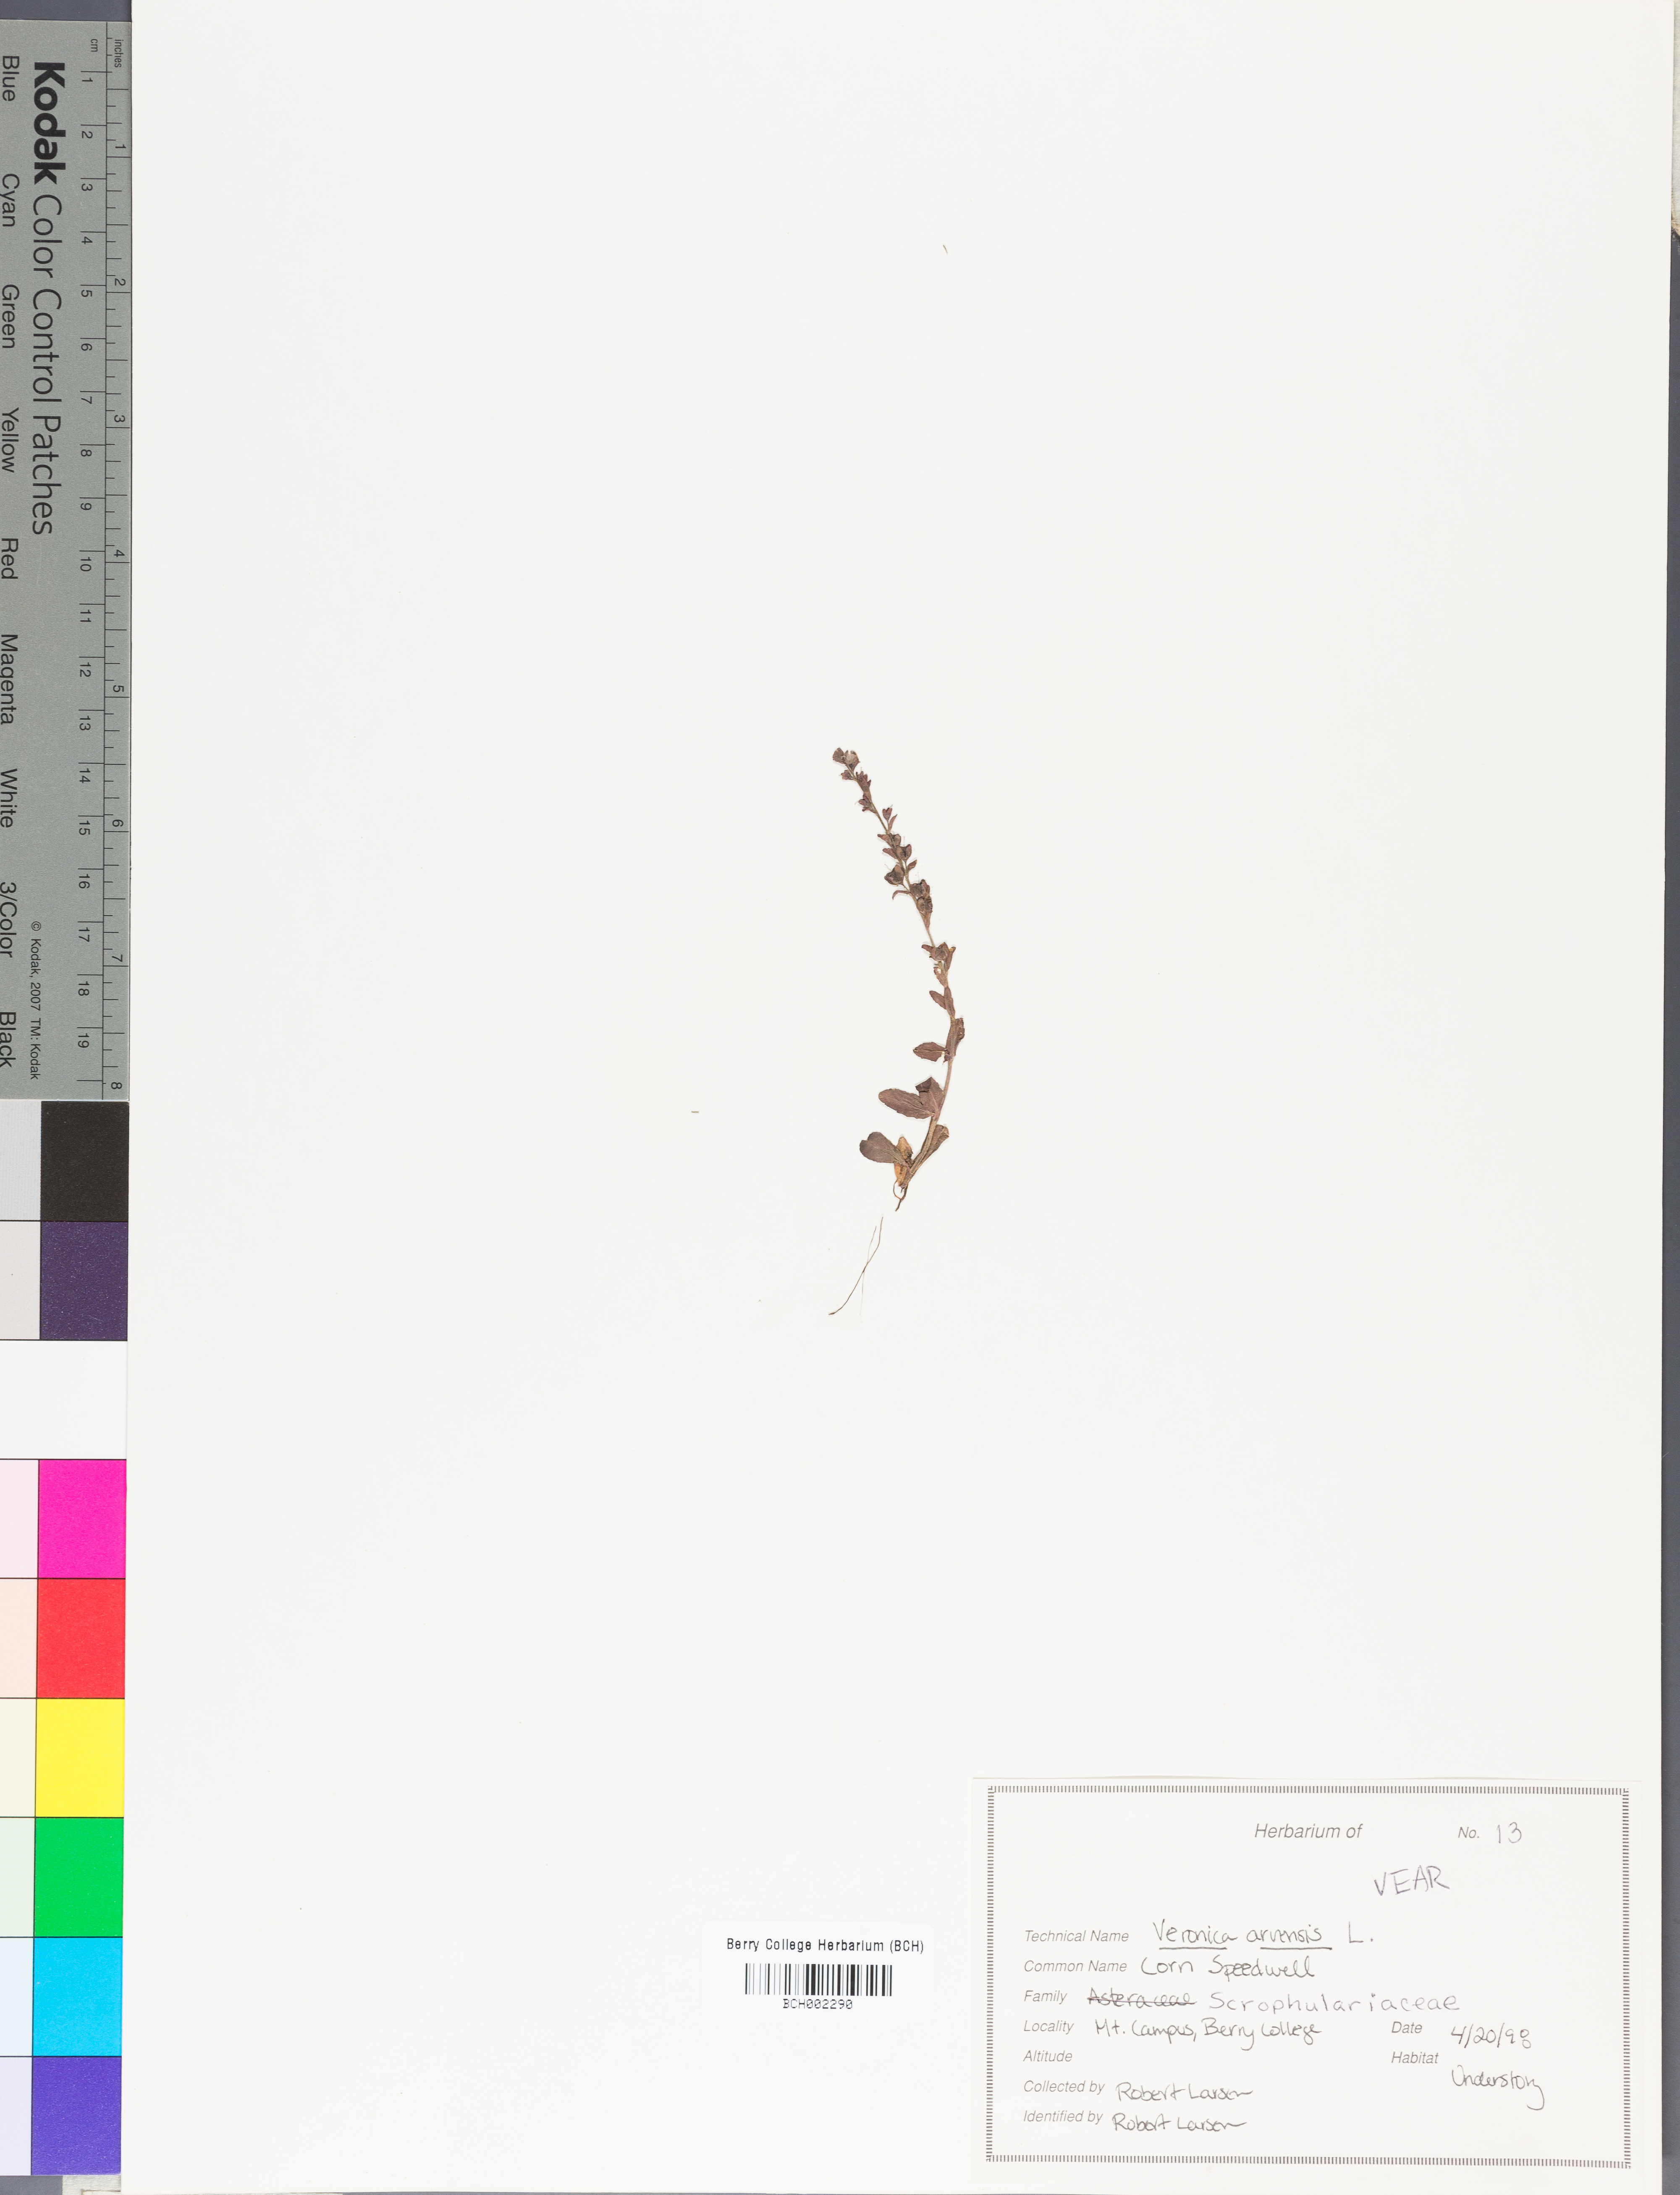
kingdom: Plantae
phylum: Tracheophyta
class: Magnoliopsida
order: Lamiales
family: Plantaginaceae
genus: Veronica
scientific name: Veronica arvensis
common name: Corn speedwell
